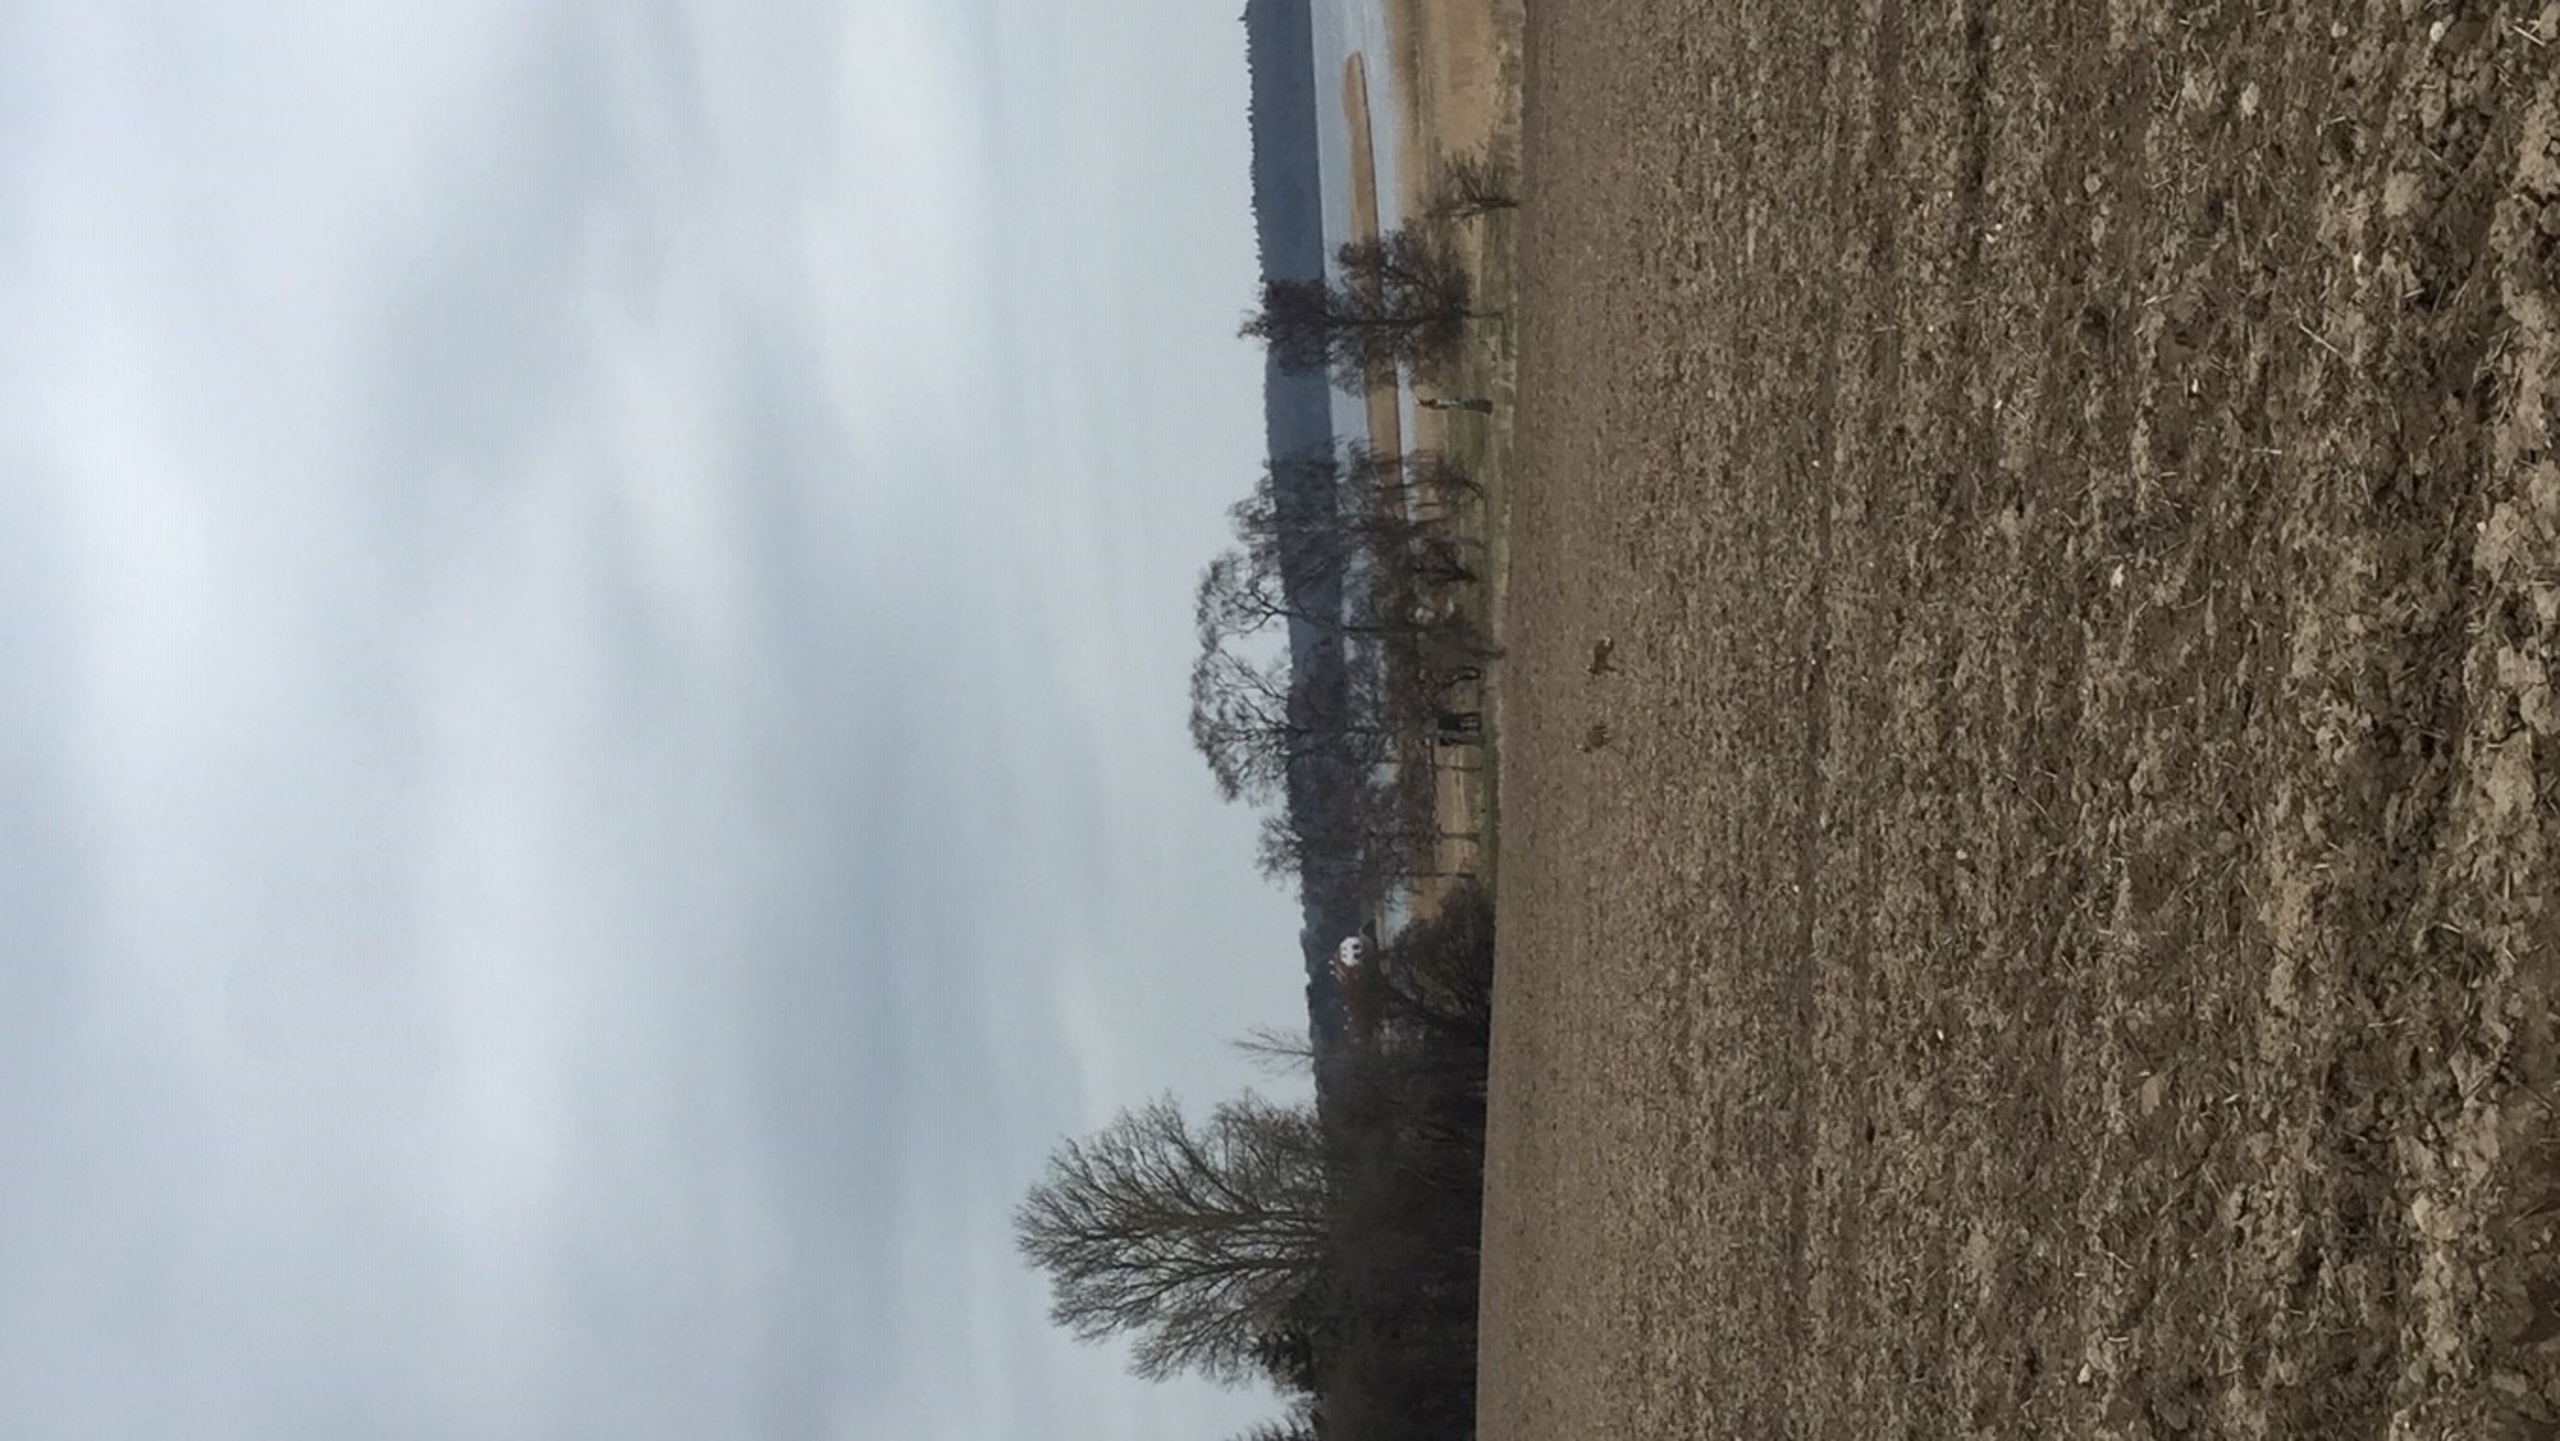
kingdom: Animalia
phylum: Chordata
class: Mammalia
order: Lagomorpha
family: Leporidae
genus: Lepus
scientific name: Lepus europaeus
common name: Hare
